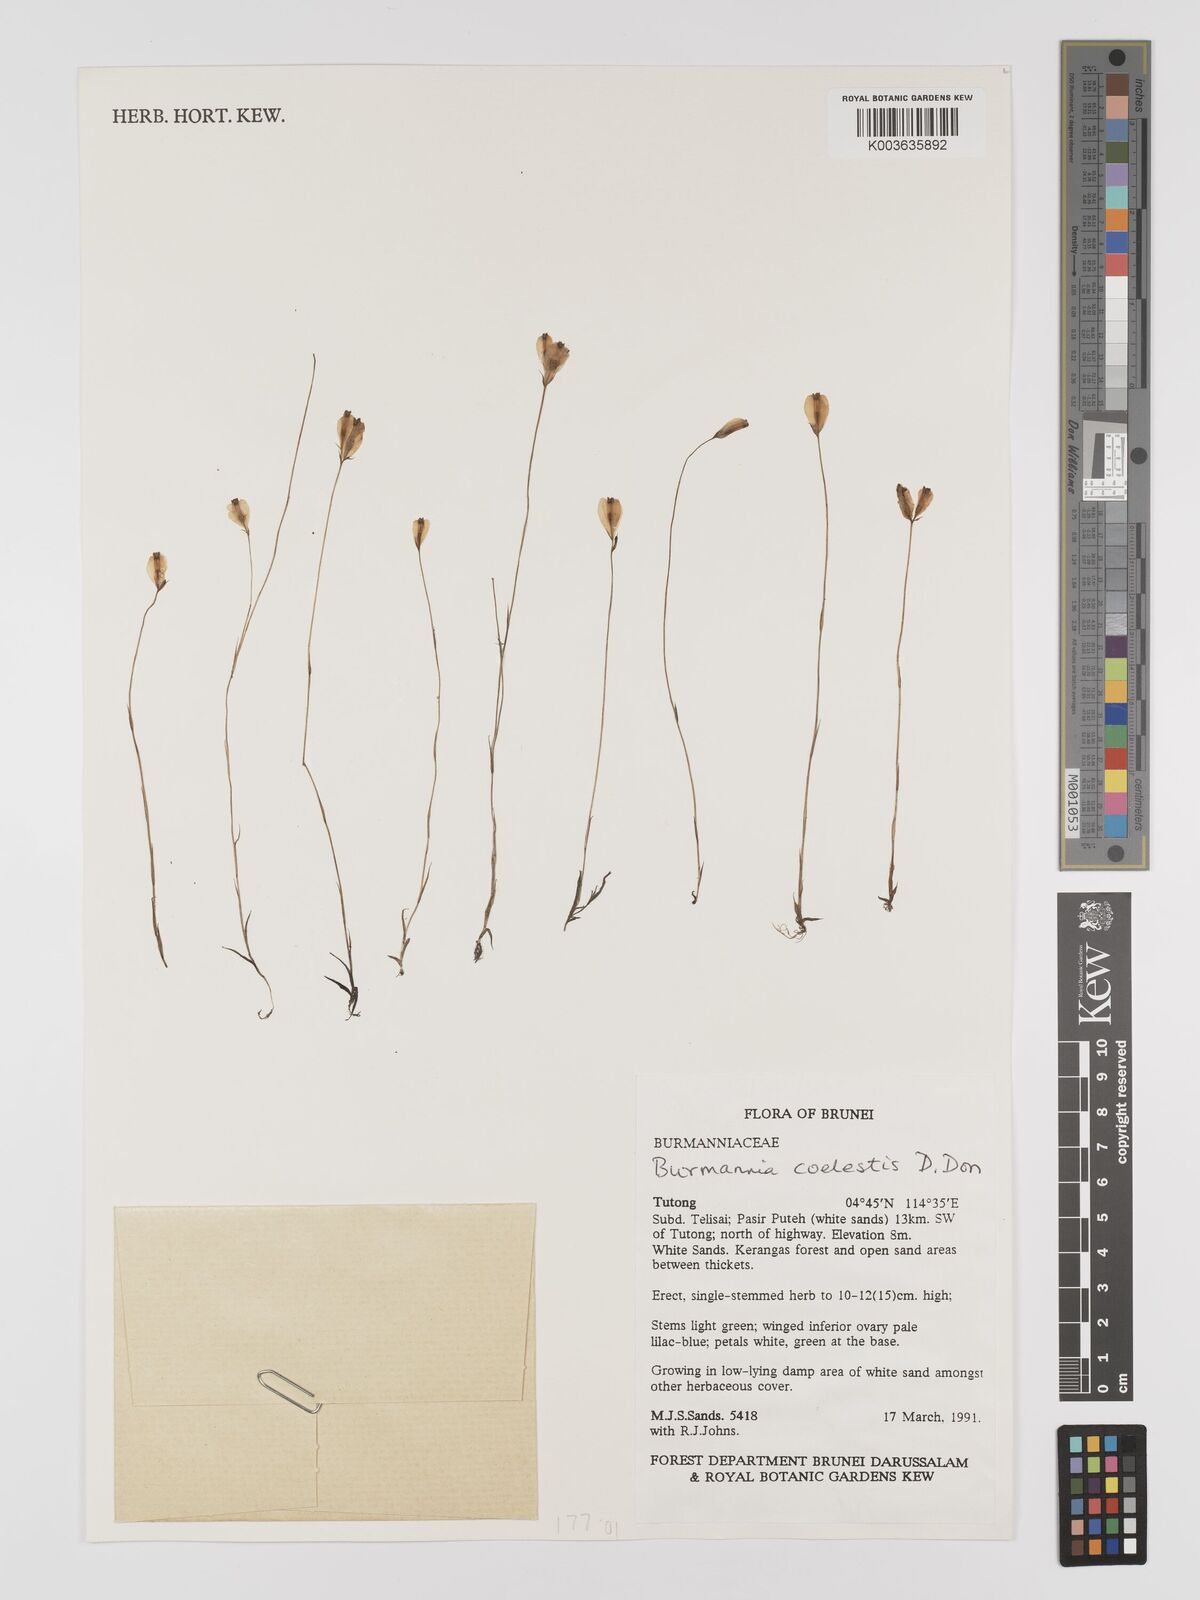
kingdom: Plantae
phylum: Tracheophyta
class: Liliopsida
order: Dioscoreales
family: Burmanniaceae
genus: Burmannia
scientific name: Burmannia coelestis
